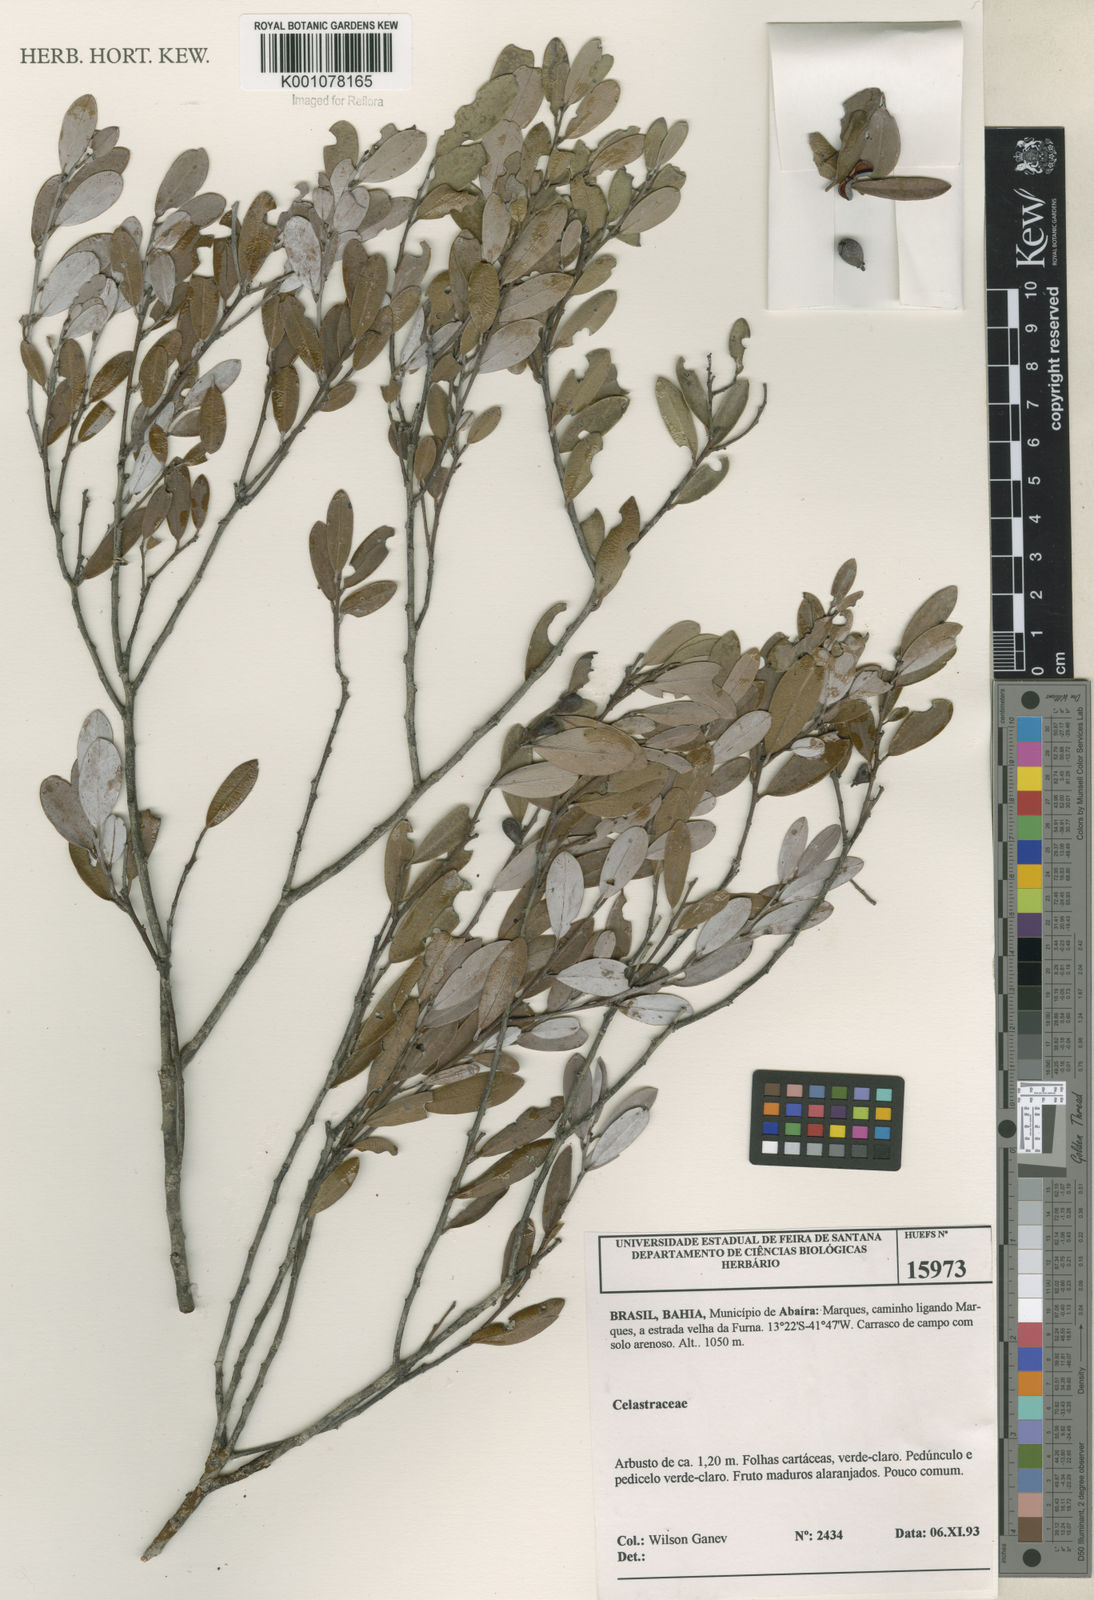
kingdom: Plantae
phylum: Tracheophyta
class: Magnoliopsida
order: Celastrales
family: Celastraceae
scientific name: Celastraceae
